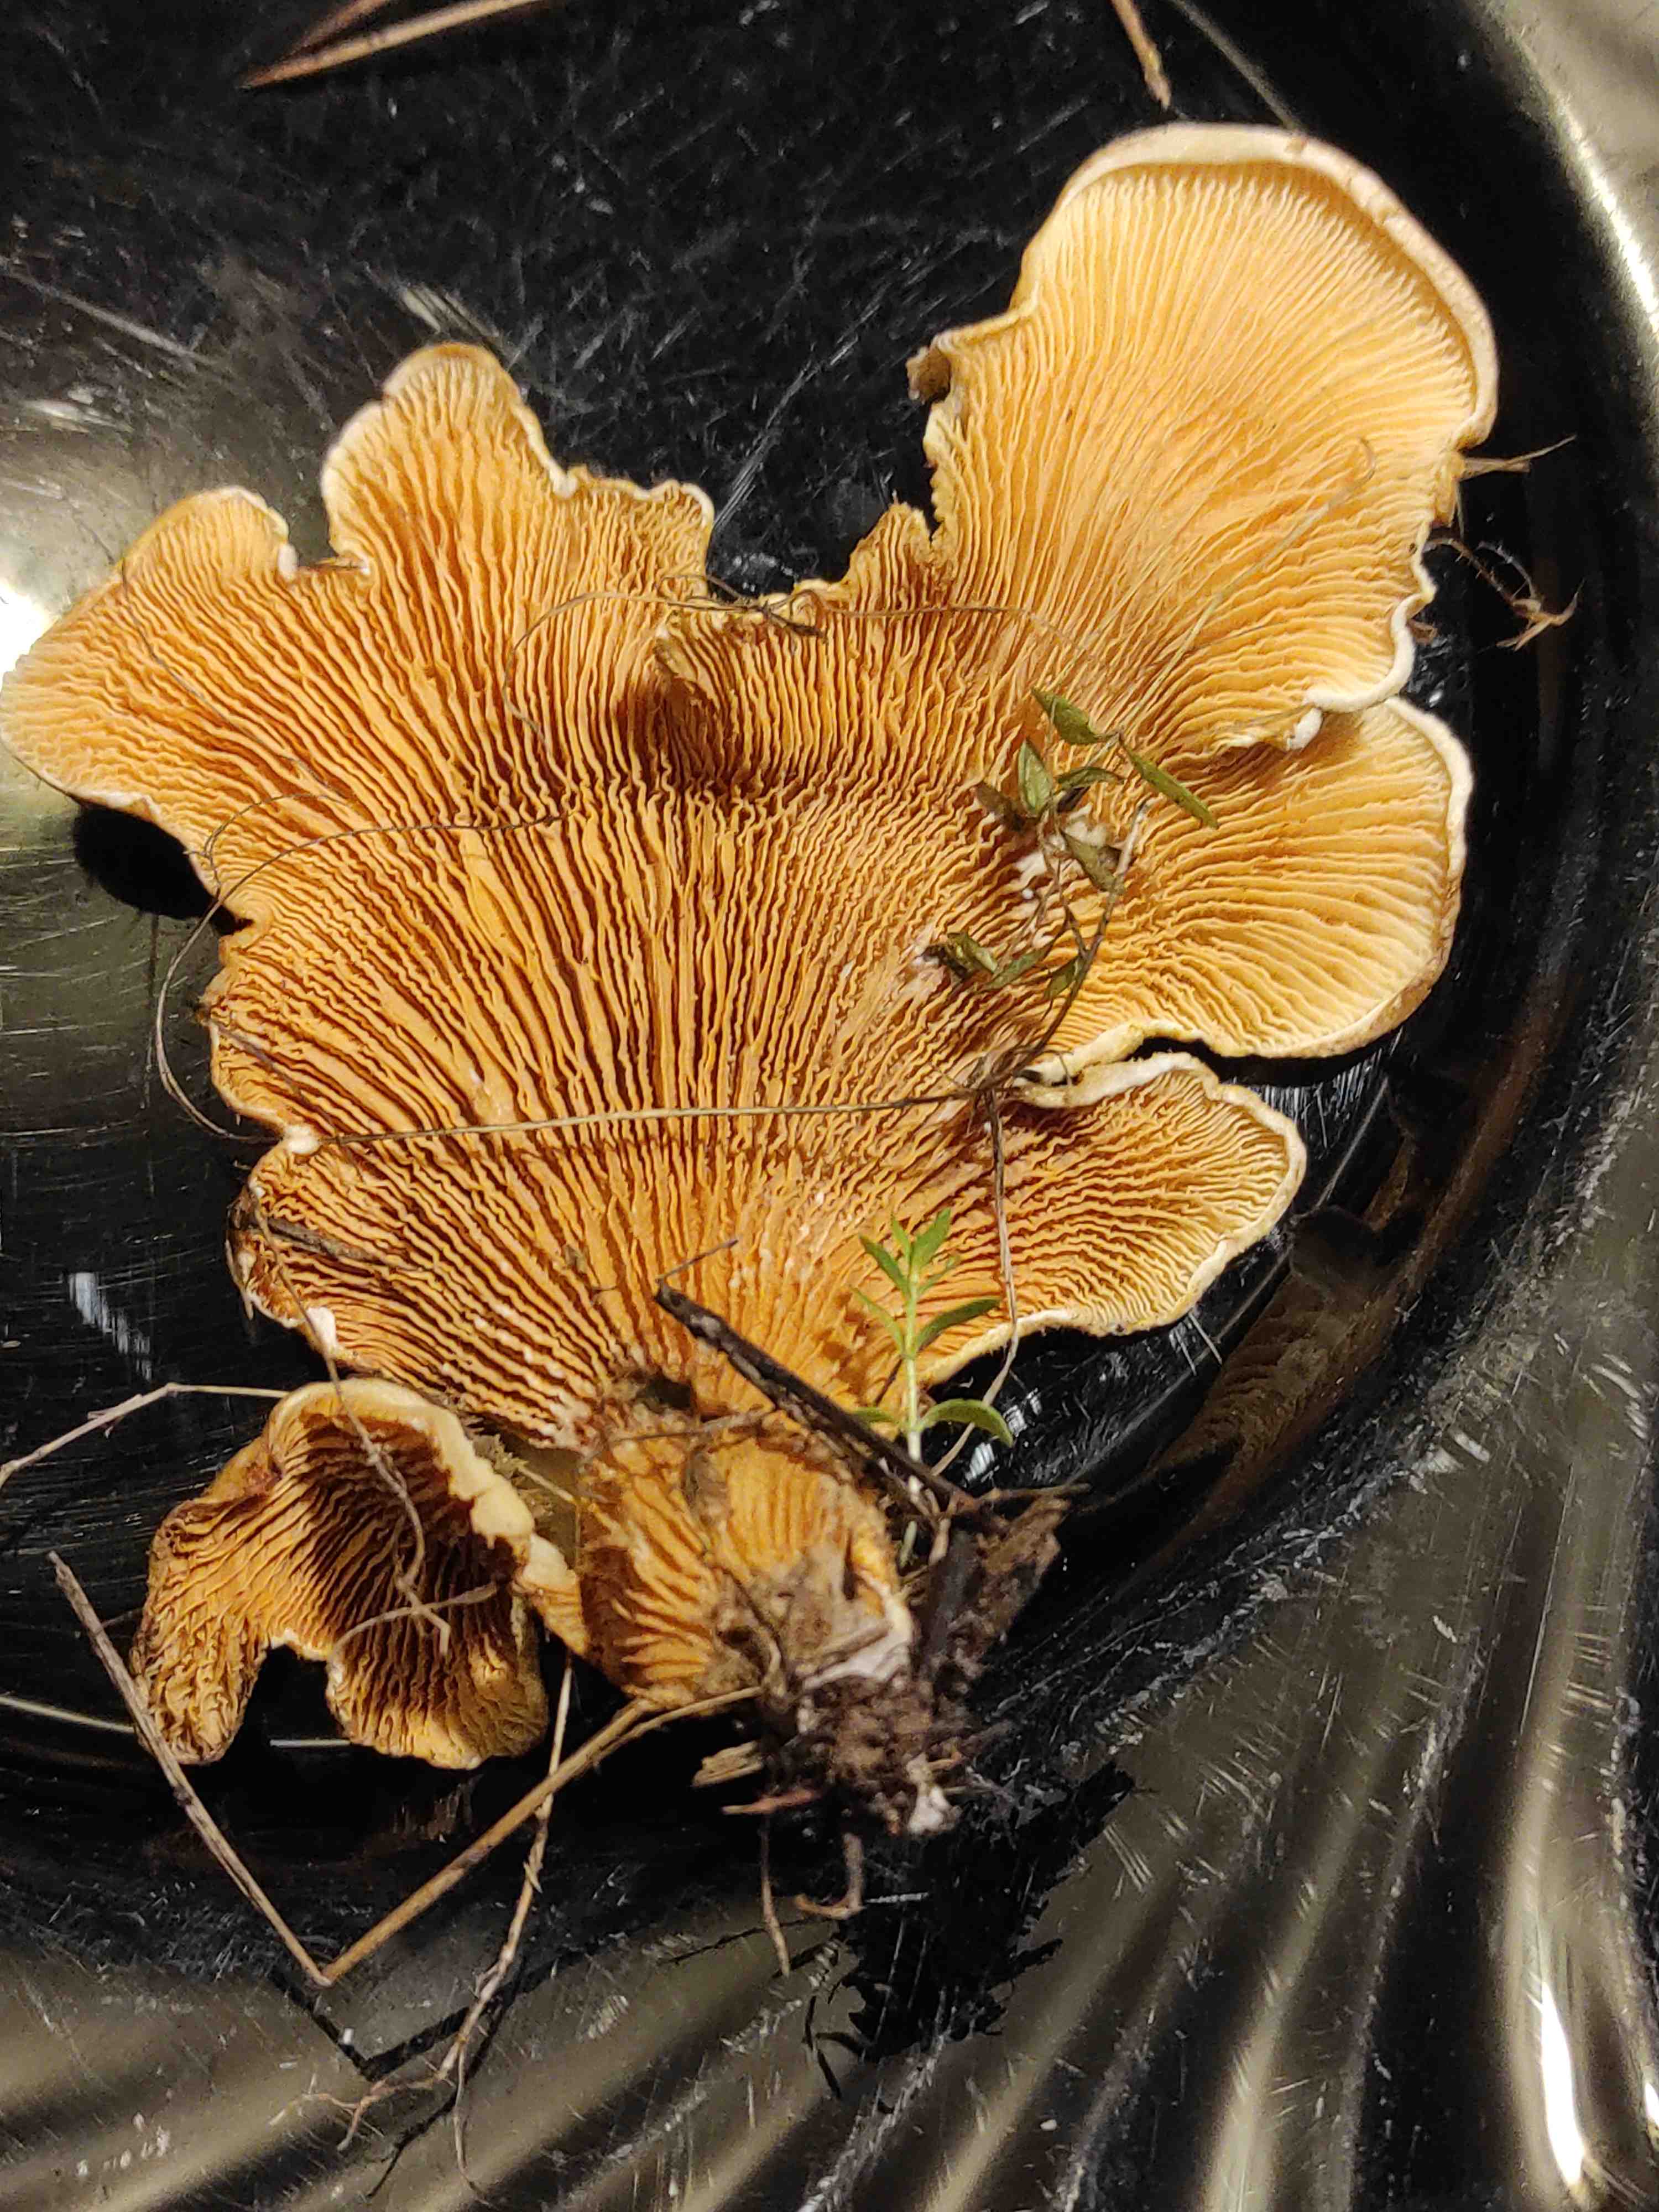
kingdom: Fungi
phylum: Basidiomycota
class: Agaricomycetes
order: Boletales
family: Tapinellaceae
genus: Tapinella
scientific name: Tapinella panuoides
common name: tømmer-viftesvamp
